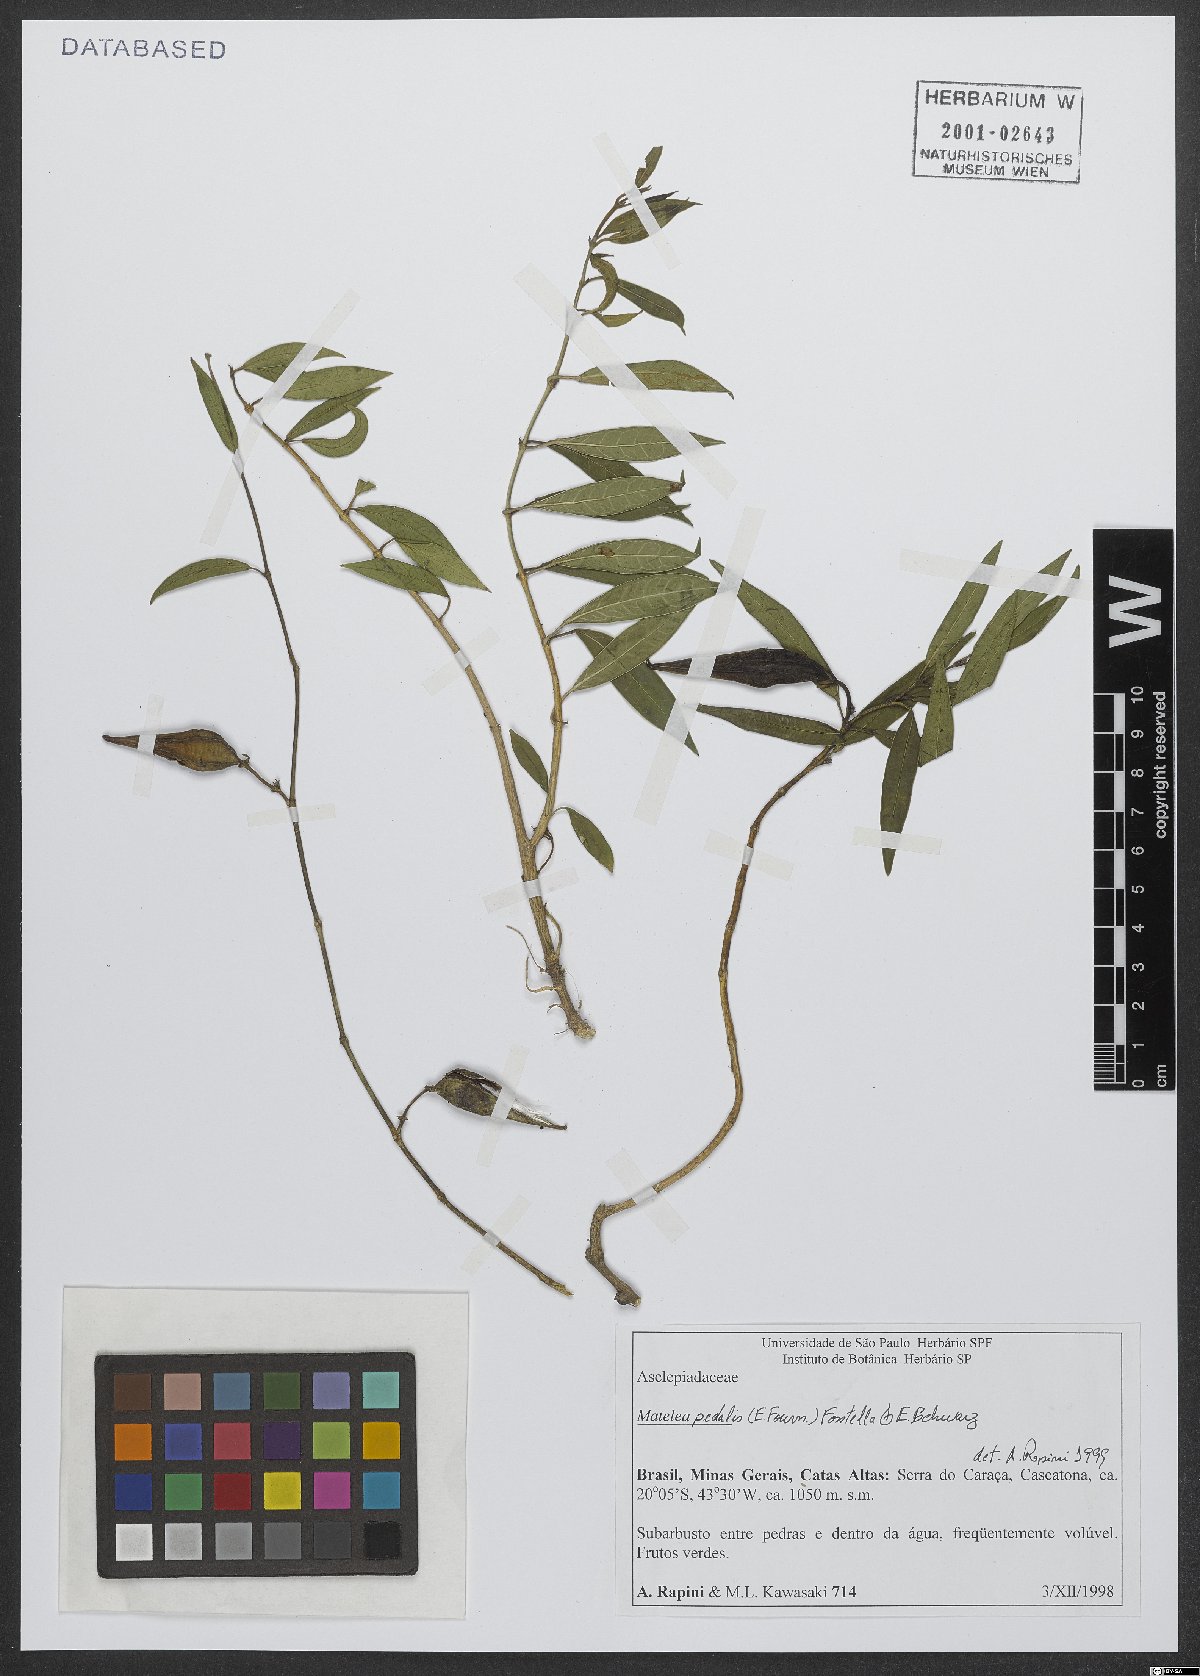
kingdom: Plantae
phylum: Tracheophyta
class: Magnoliopsida
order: Gentianales
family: Apocynaceae
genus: Matelea
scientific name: Matelea pedalis
